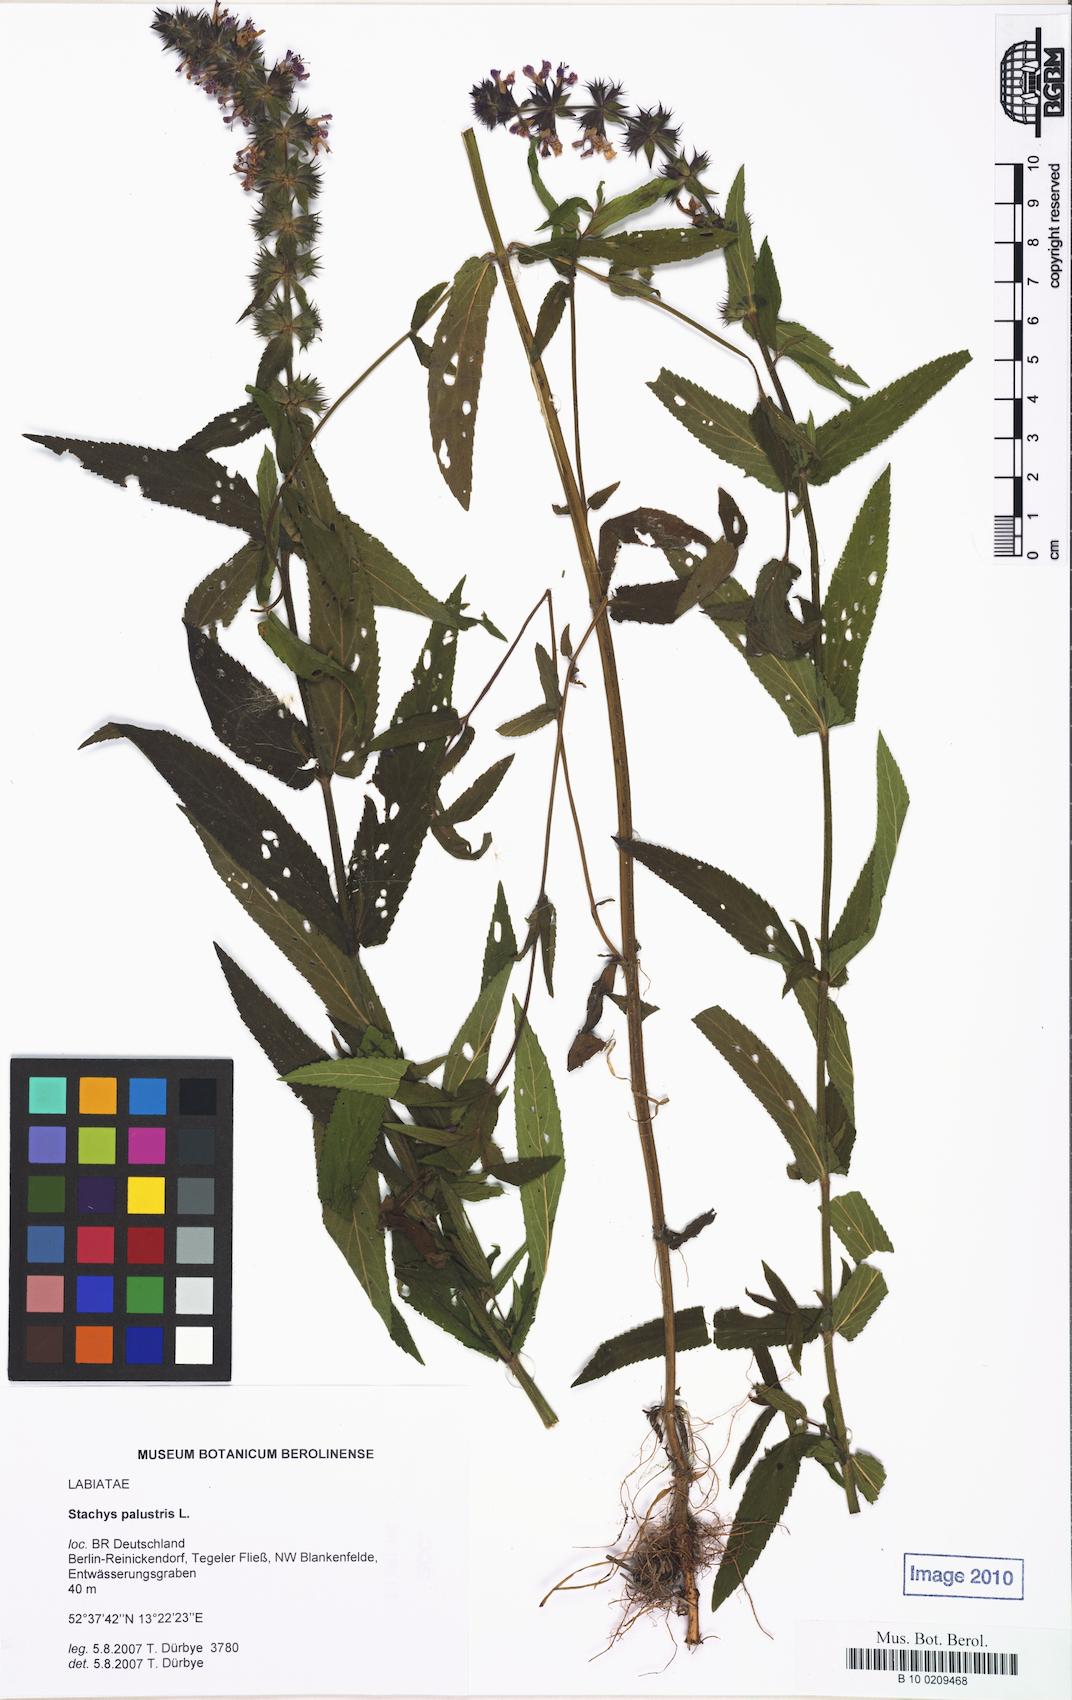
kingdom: Plantae
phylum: Tracheophyta
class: Magnoliopsida
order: Lamiales
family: Lamiaceae
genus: Stachys
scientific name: Stachys palustris
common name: Marsh woundwort
